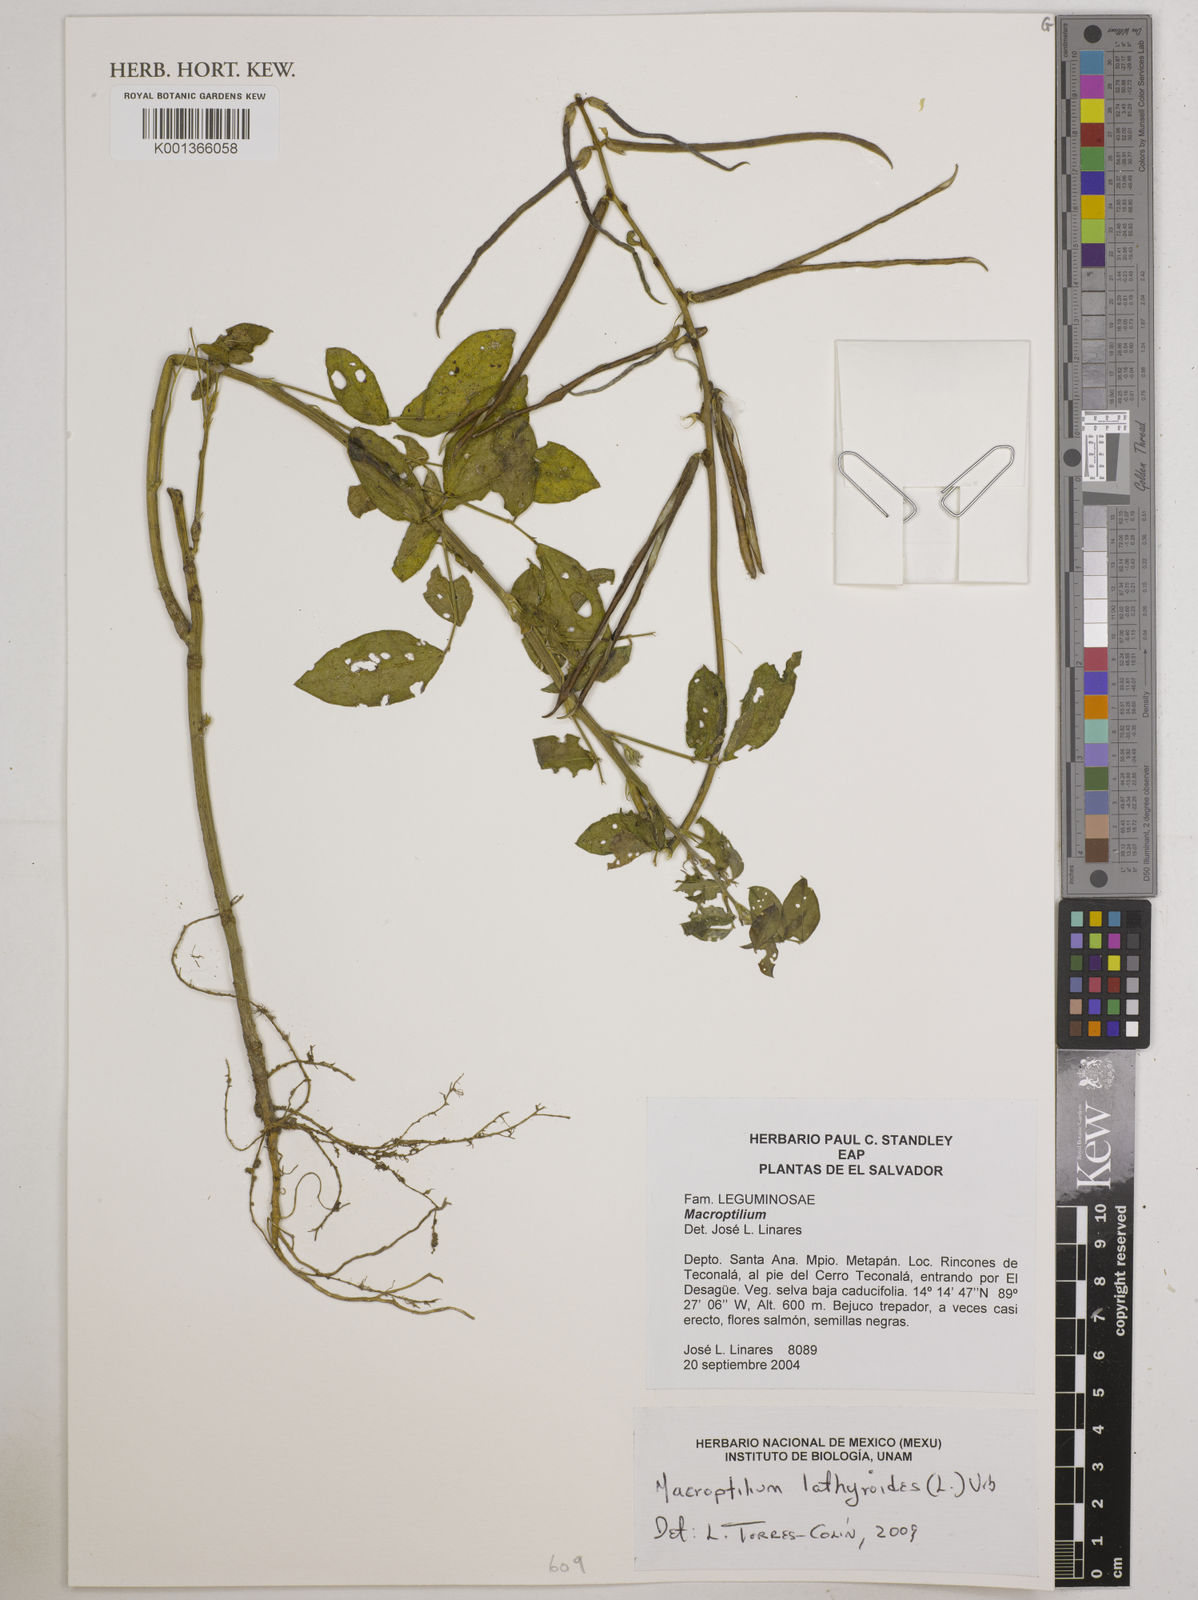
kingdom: Plantae
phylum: Tracheophyta
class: Magnoliopsida
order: Fabales
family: Fabaceae
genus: Macroptilium
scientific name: Macroptilium lathyroides
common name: Wild bushbean
